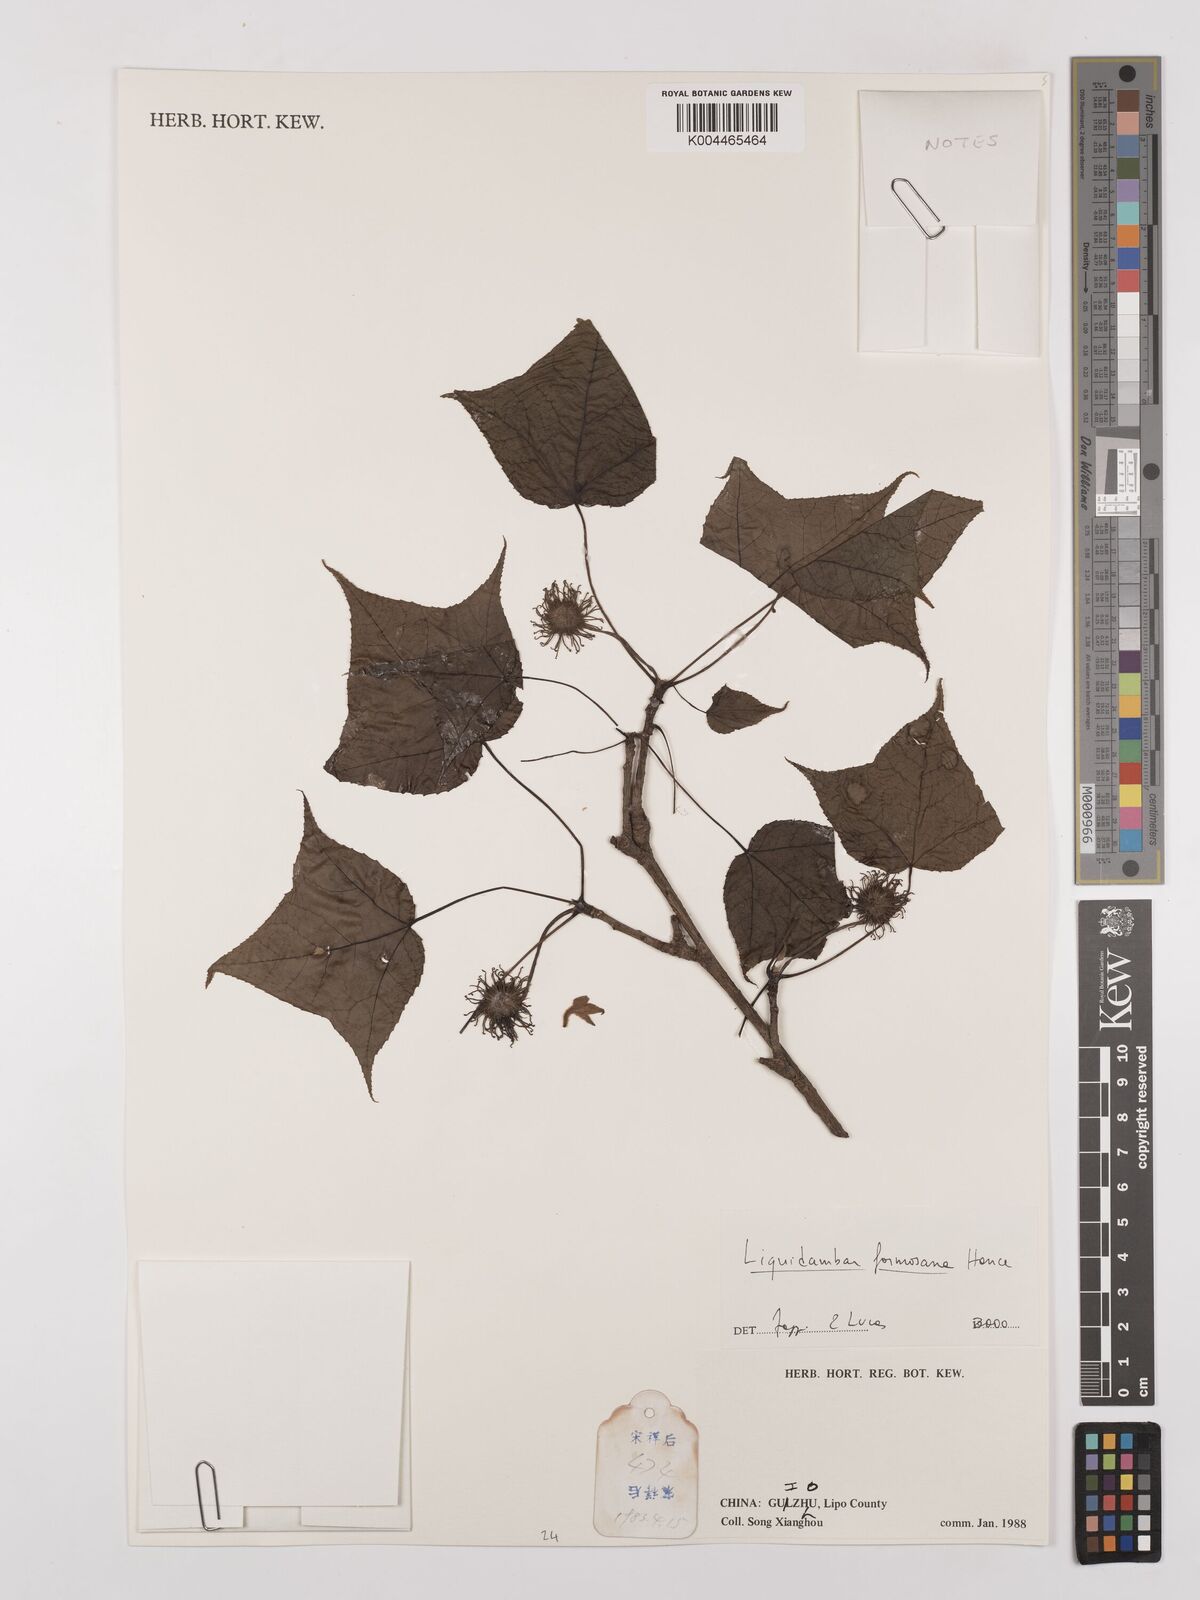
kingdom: Plantae
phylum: Tracheophyta
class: Magnoliopsida
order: Saxifragales
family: Altingiaceae
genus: Liquidambar
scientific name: Liquidambar formosana
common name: Chinese sweet gum
